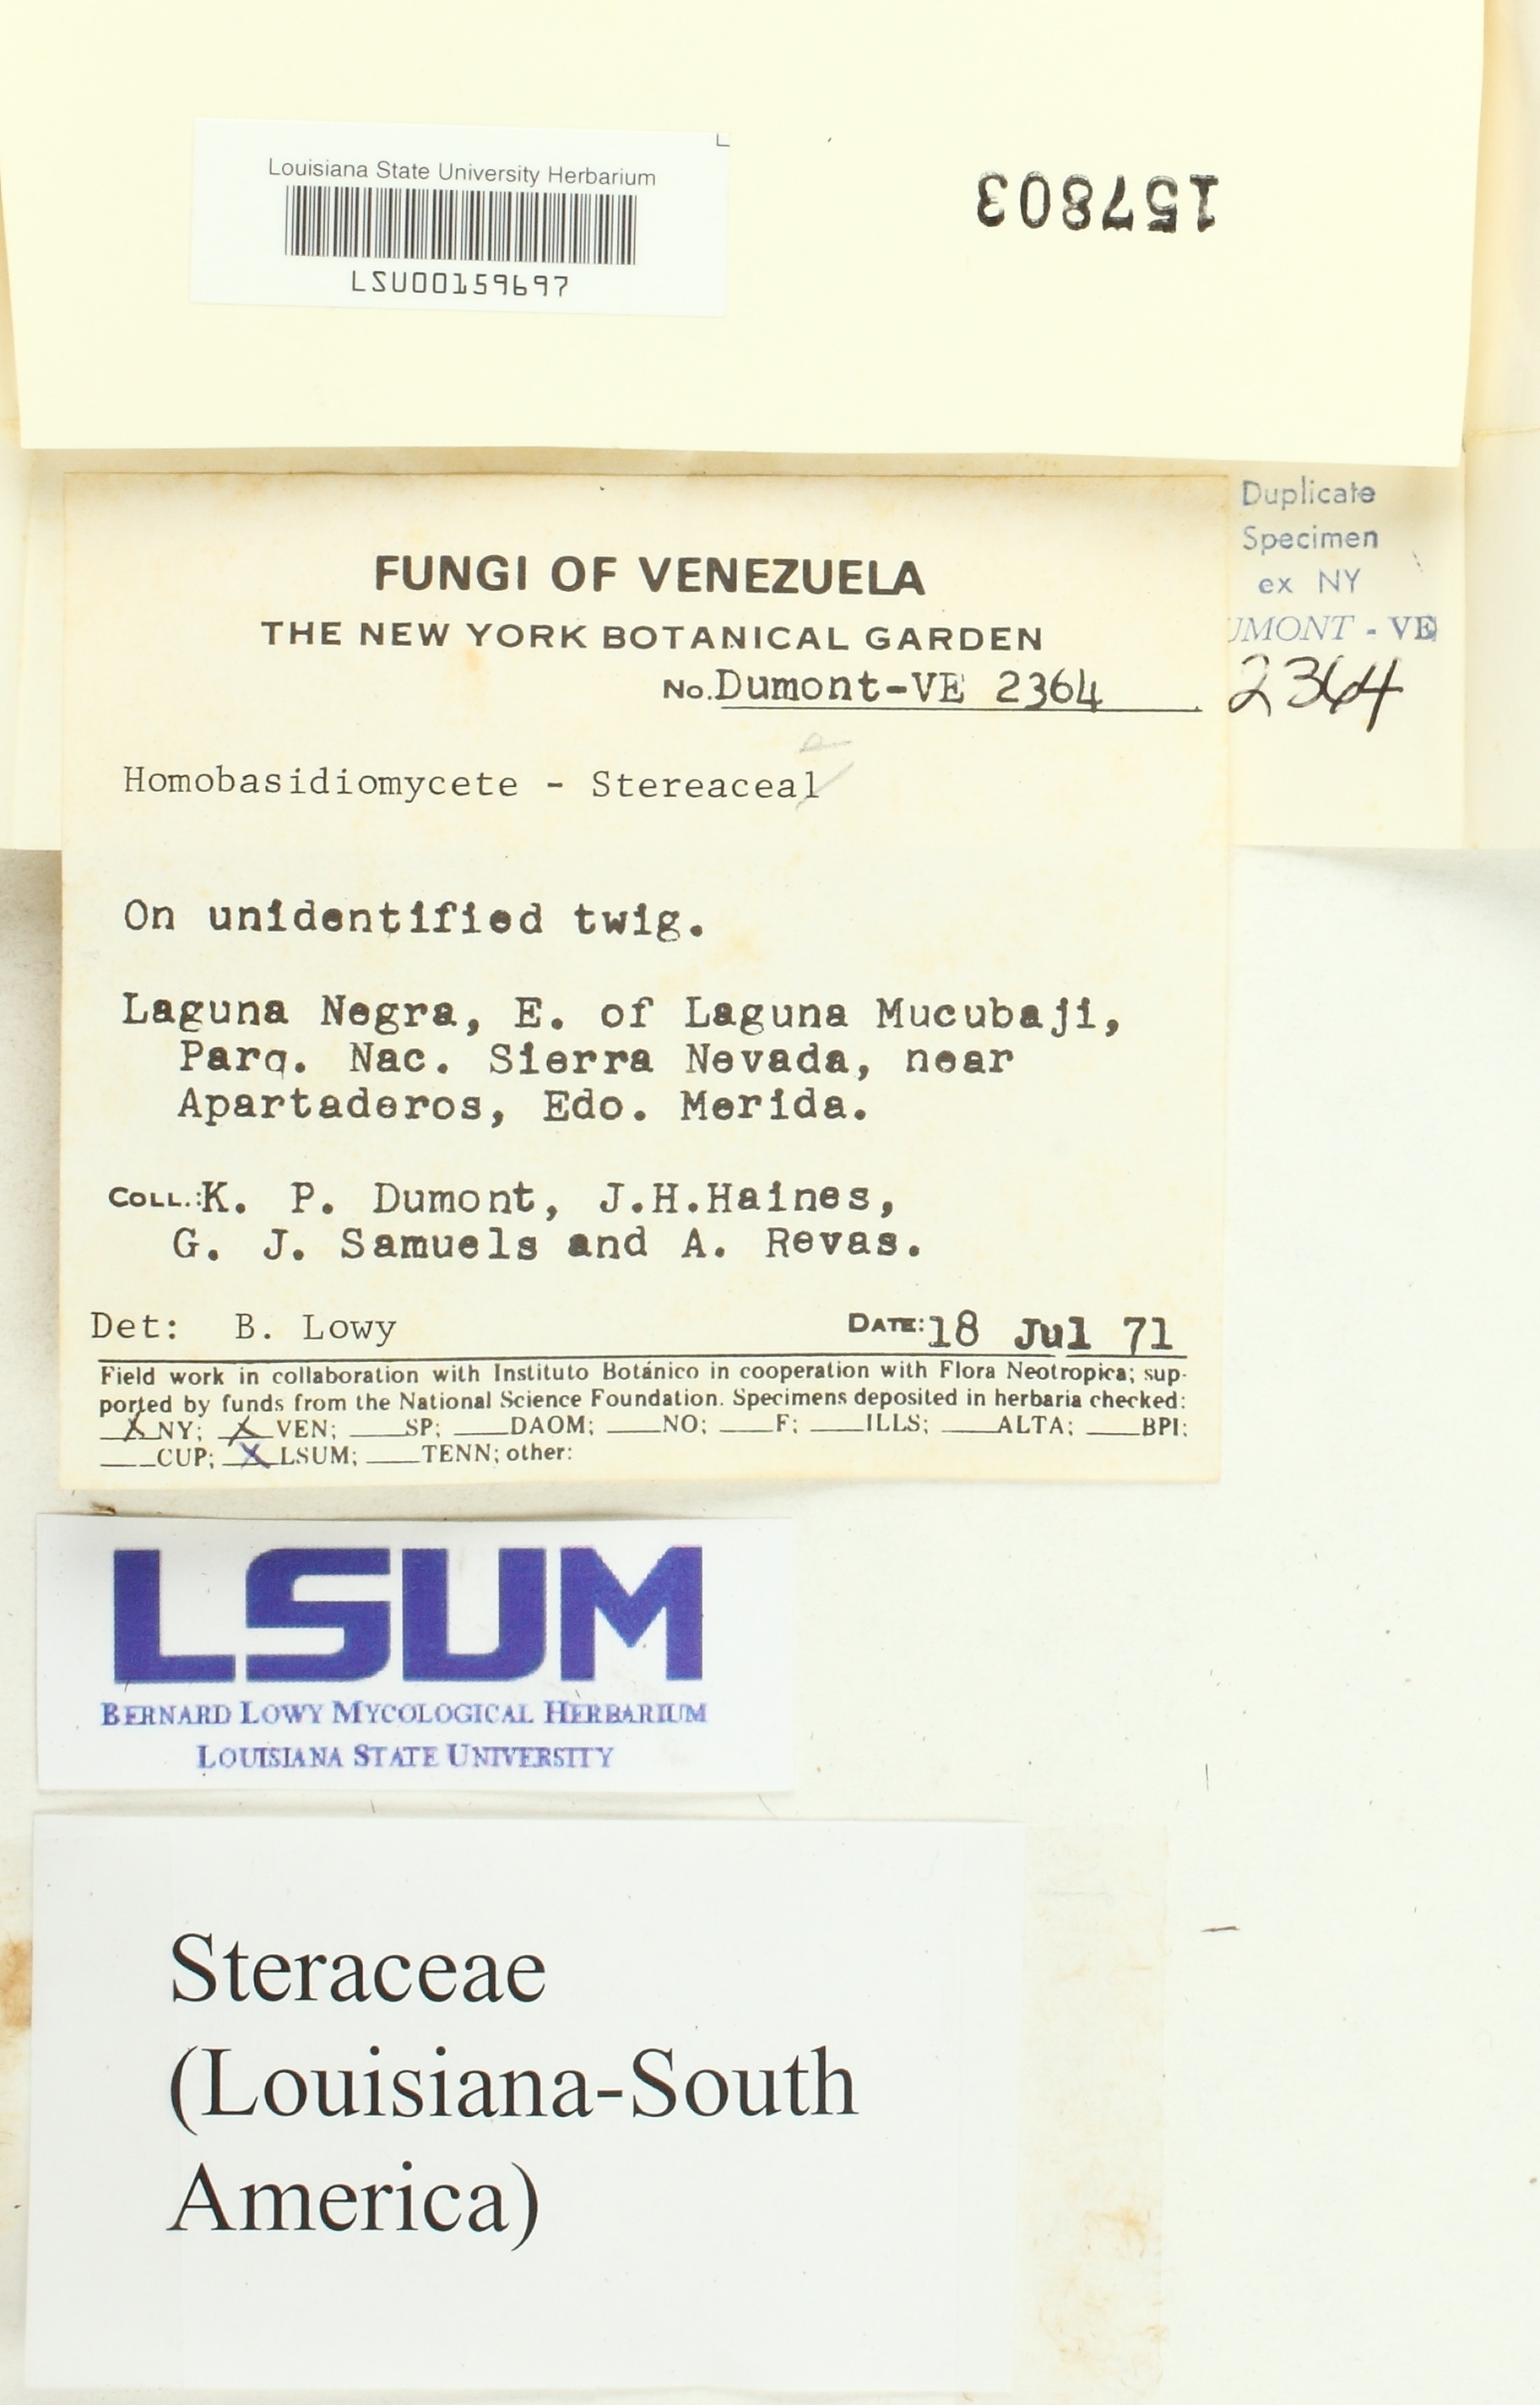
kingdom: Fungi
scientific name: Fungi
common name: Fungi
